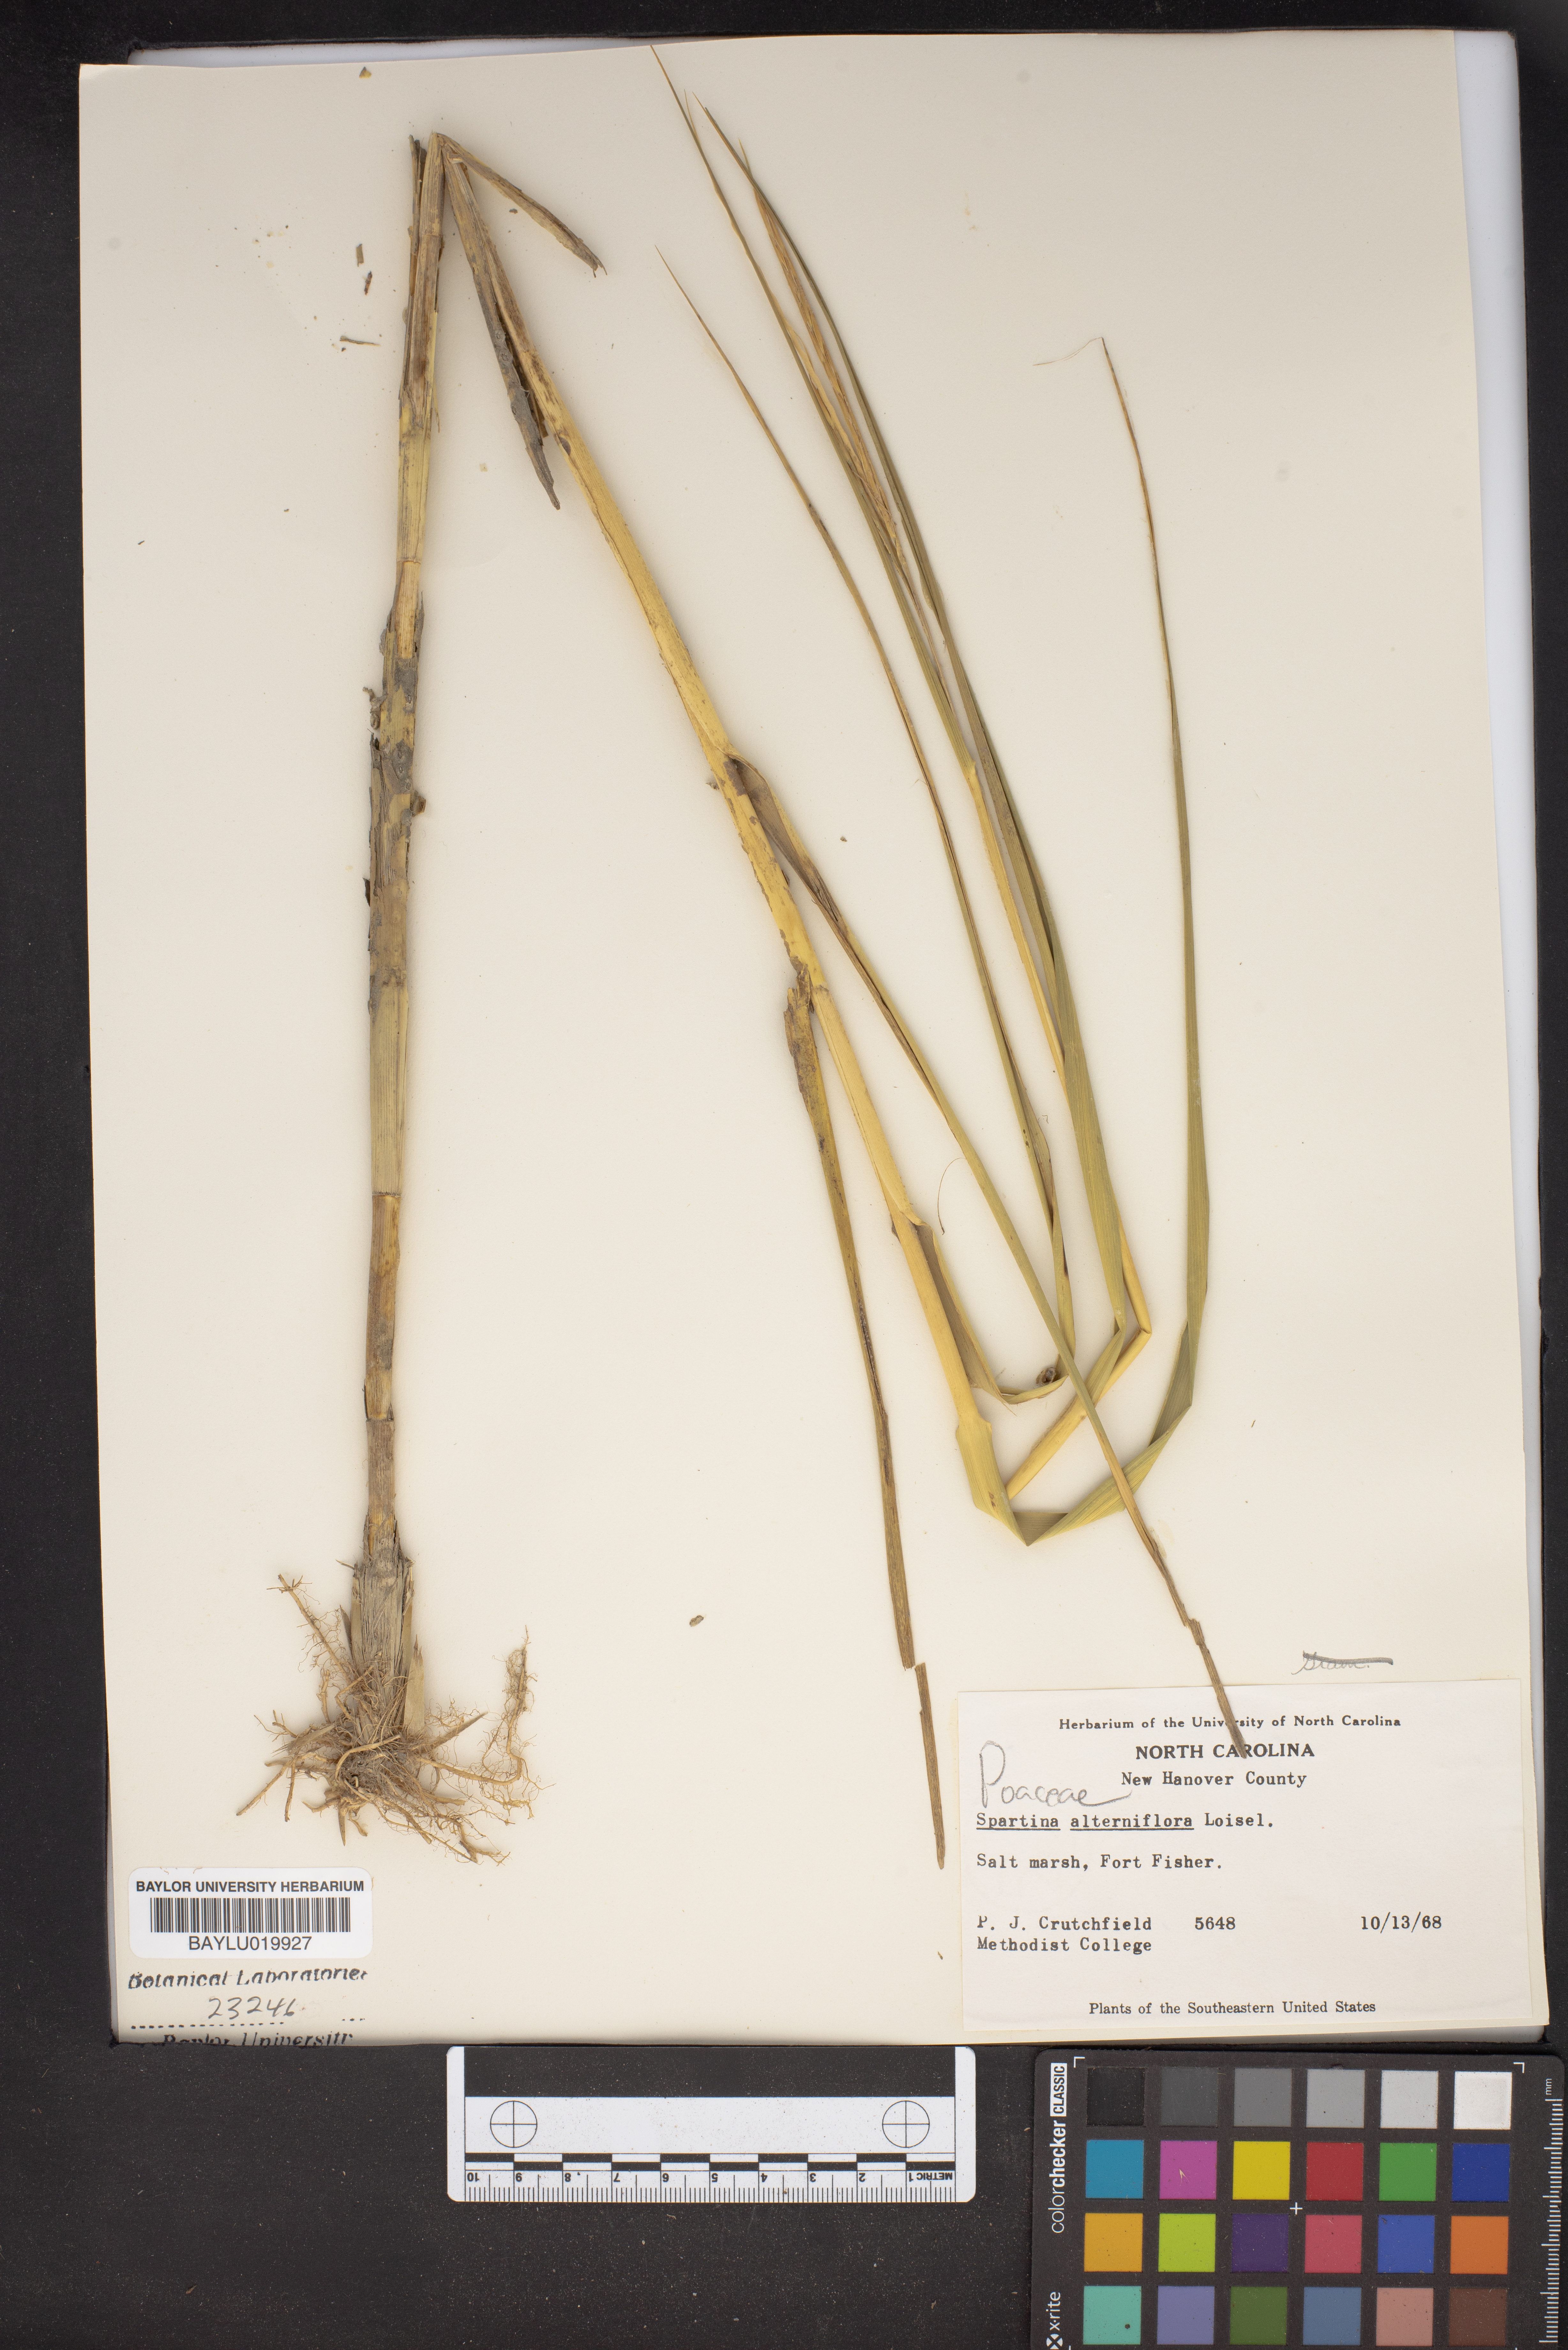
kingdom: Plantae
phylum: Tracheophyta
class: Liliopsida
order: Poales
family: Poaceae
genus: Sporobolus
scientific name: Sporobolus alterniflorus
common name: Atlantic cordgrass
